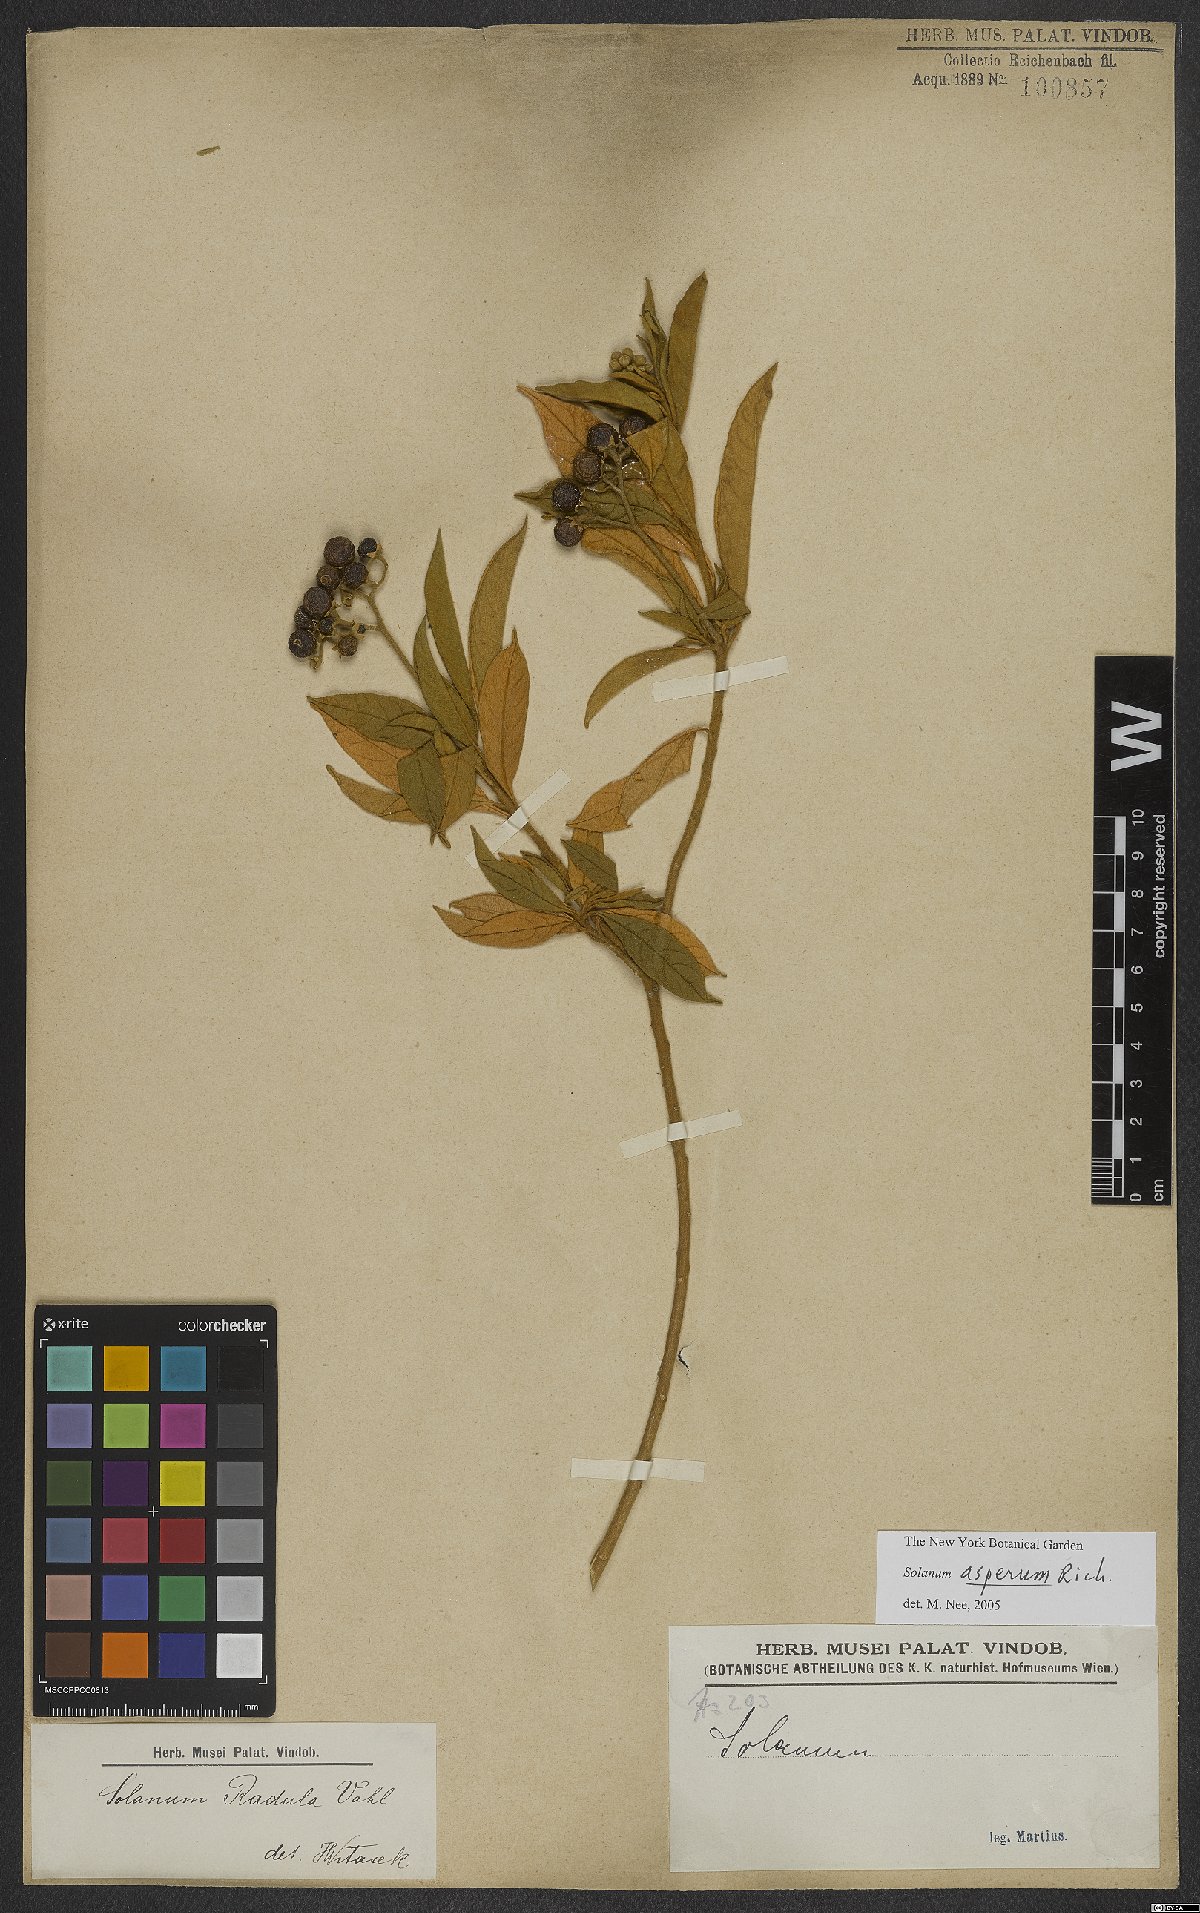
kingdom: Plantae
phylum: Tracheophyta
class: Magnoliopsida
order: Solanales
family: Solanaceae
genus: Solanum
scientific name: Solanum asperum
